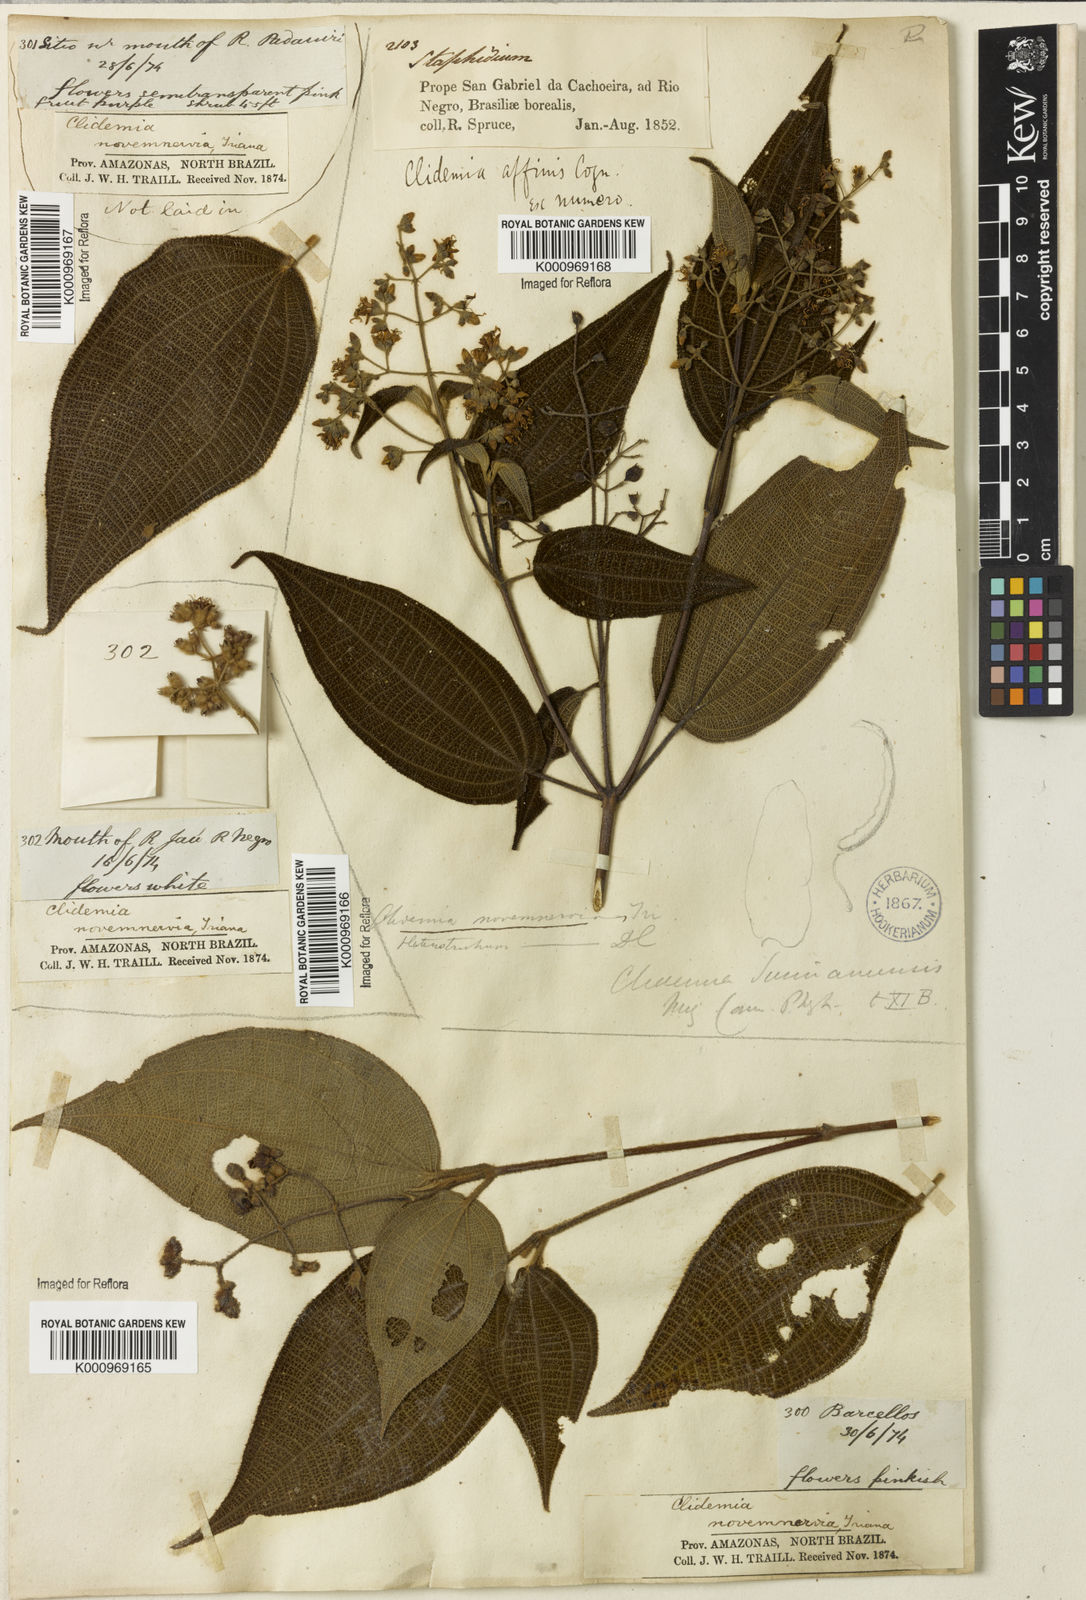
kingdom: Plantae
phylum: Tracheophyta
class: Magnoliopsida
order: Myrtales
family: Melastomataceae
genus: Miconia
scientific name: Miconia bullatifolia
